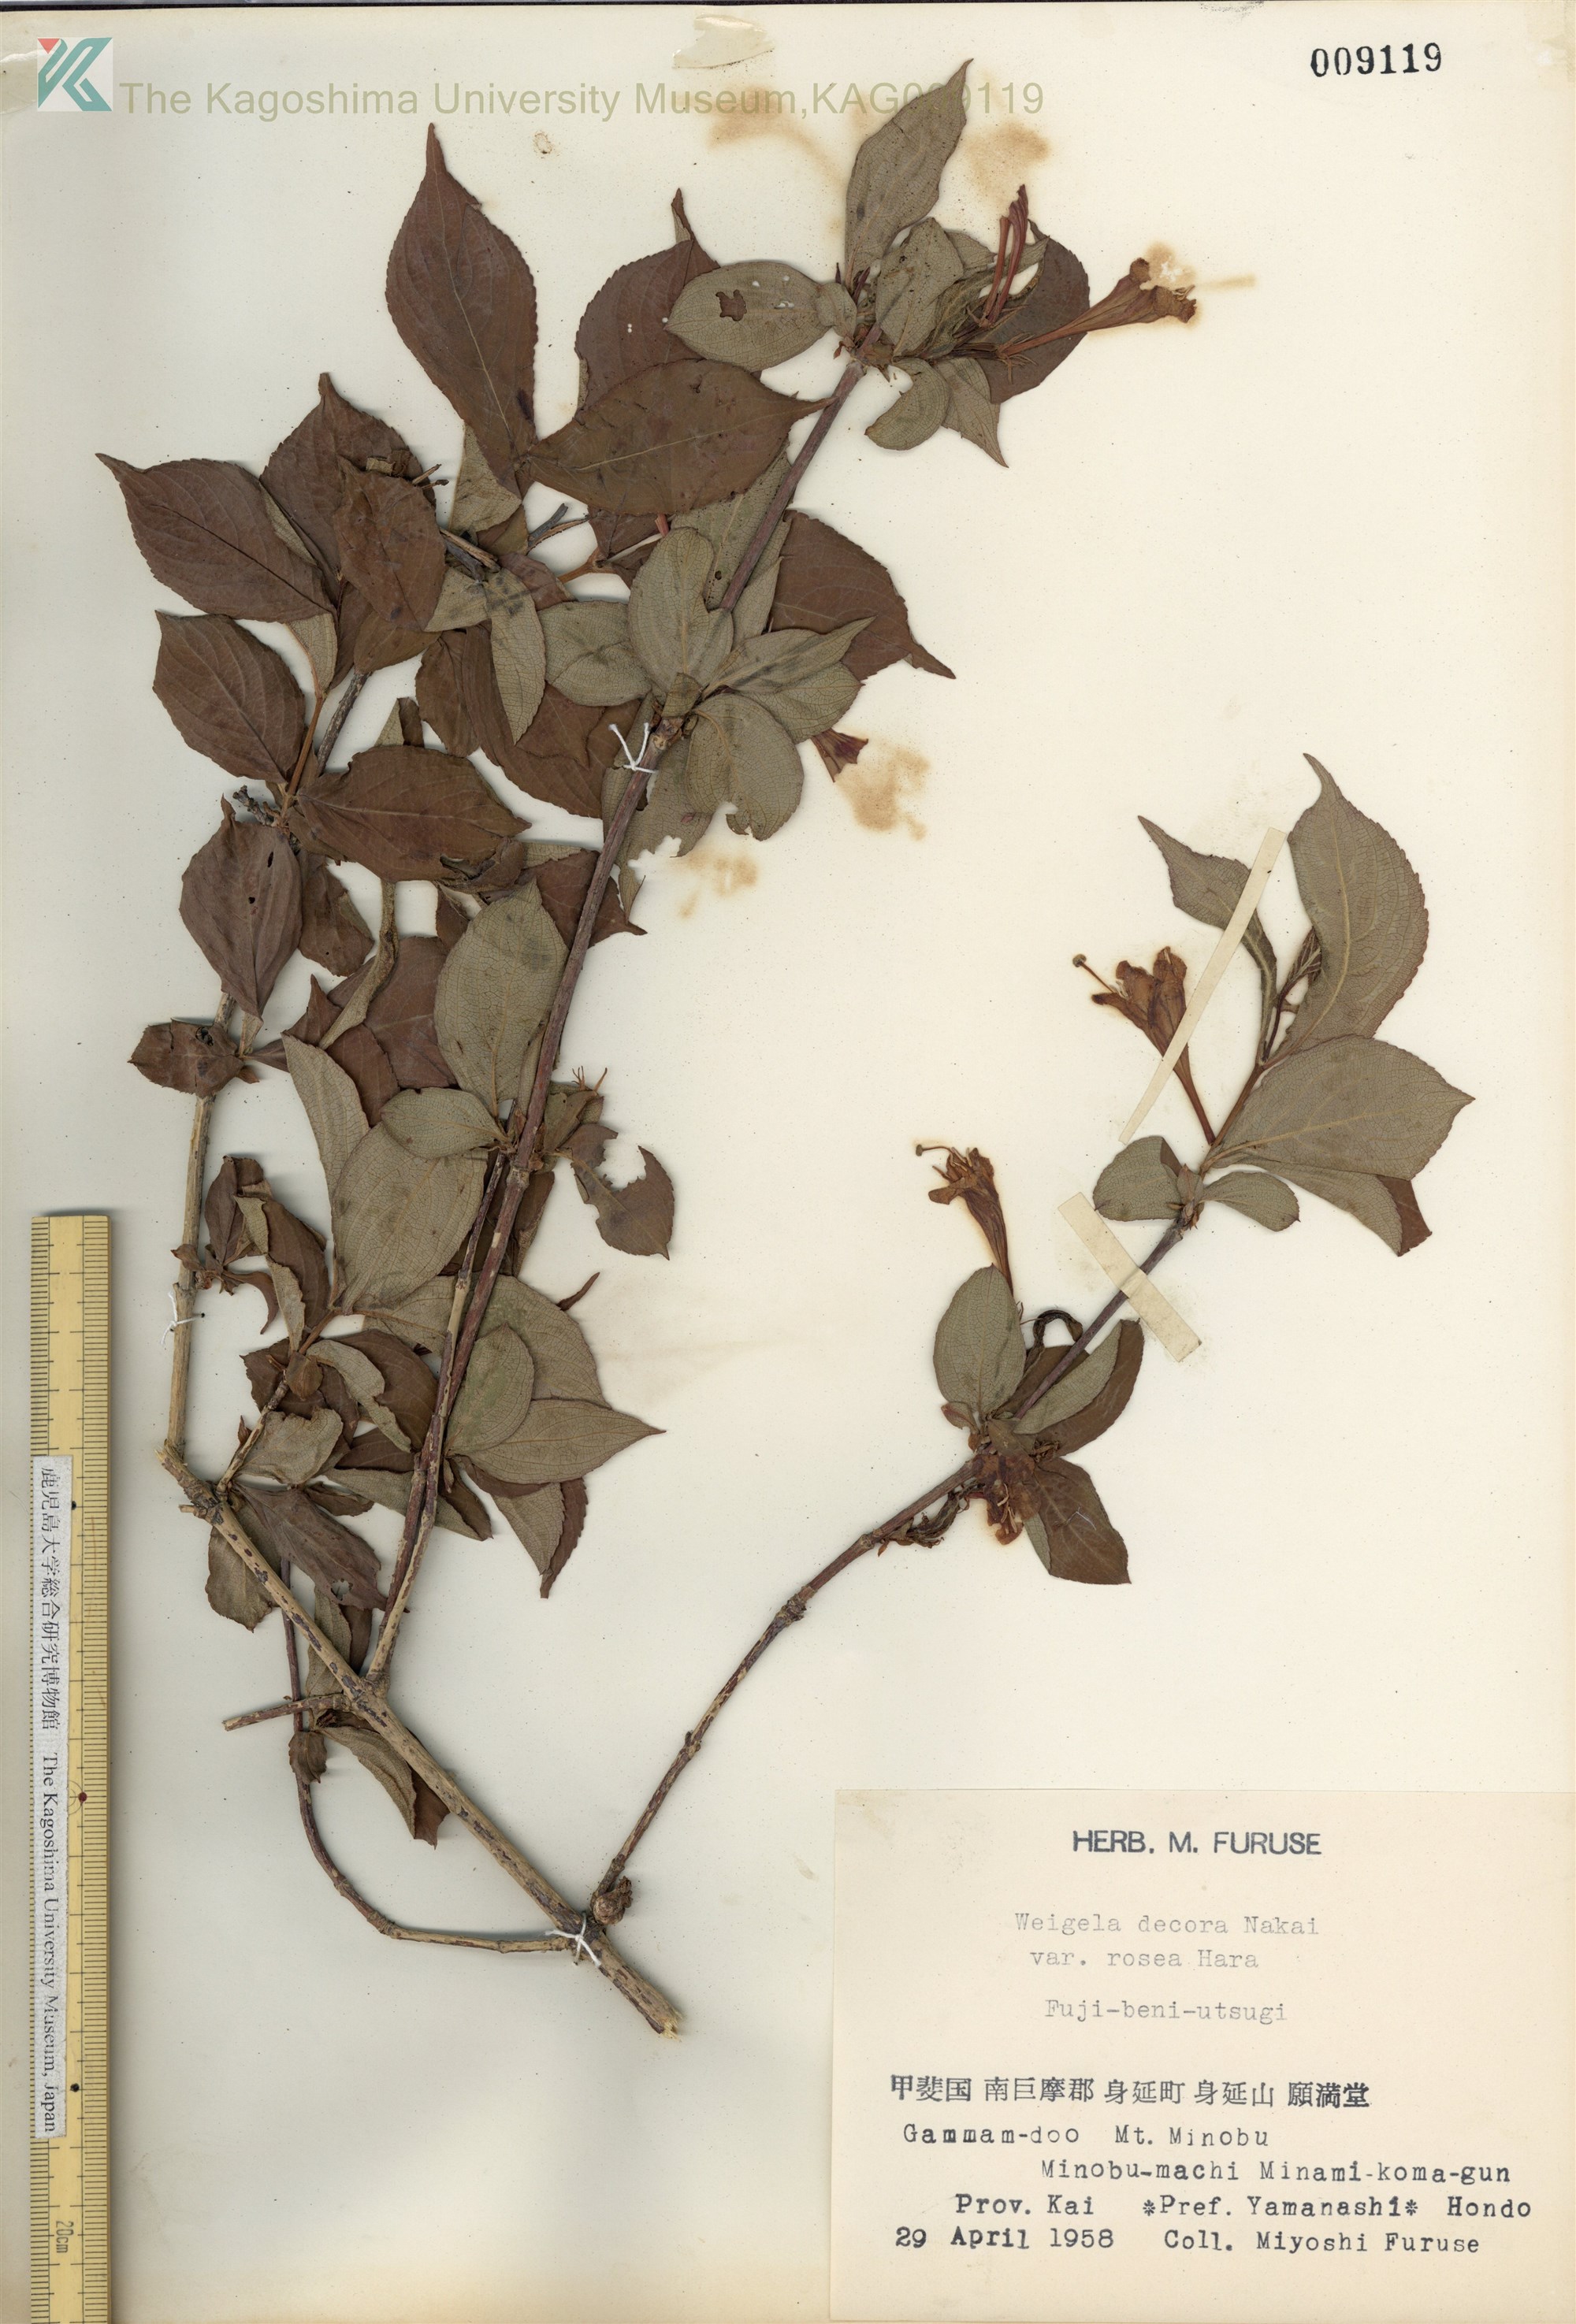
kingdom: Plantae
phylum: Tracheophyta
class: Magnoliopsida
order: Dipsacales
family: Caprifoliaceae
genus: Weigela
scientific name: Weigela decora
